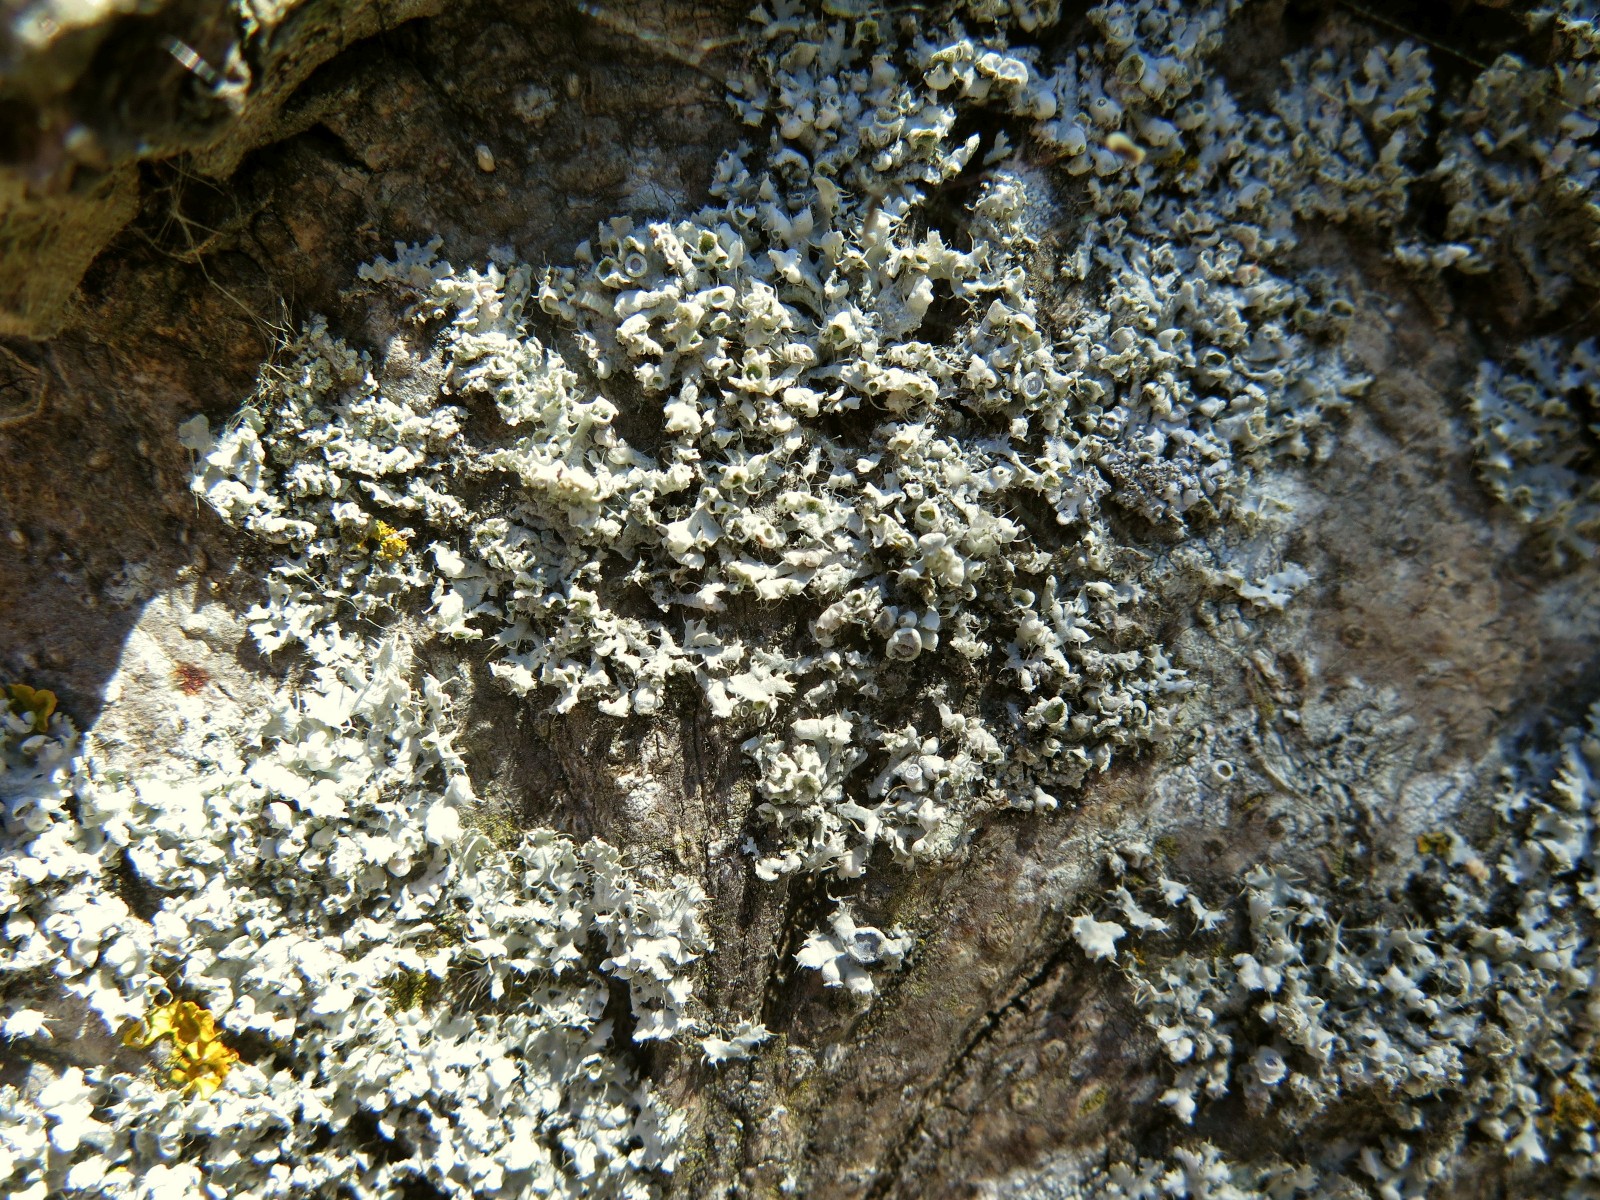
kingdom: Fungi
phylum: Ascomycota
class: Lecanoromycetes
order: Caliciales
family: Physciaceae
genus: Physcia
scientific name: Physcia adscendens
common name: hætte-rosetlav
